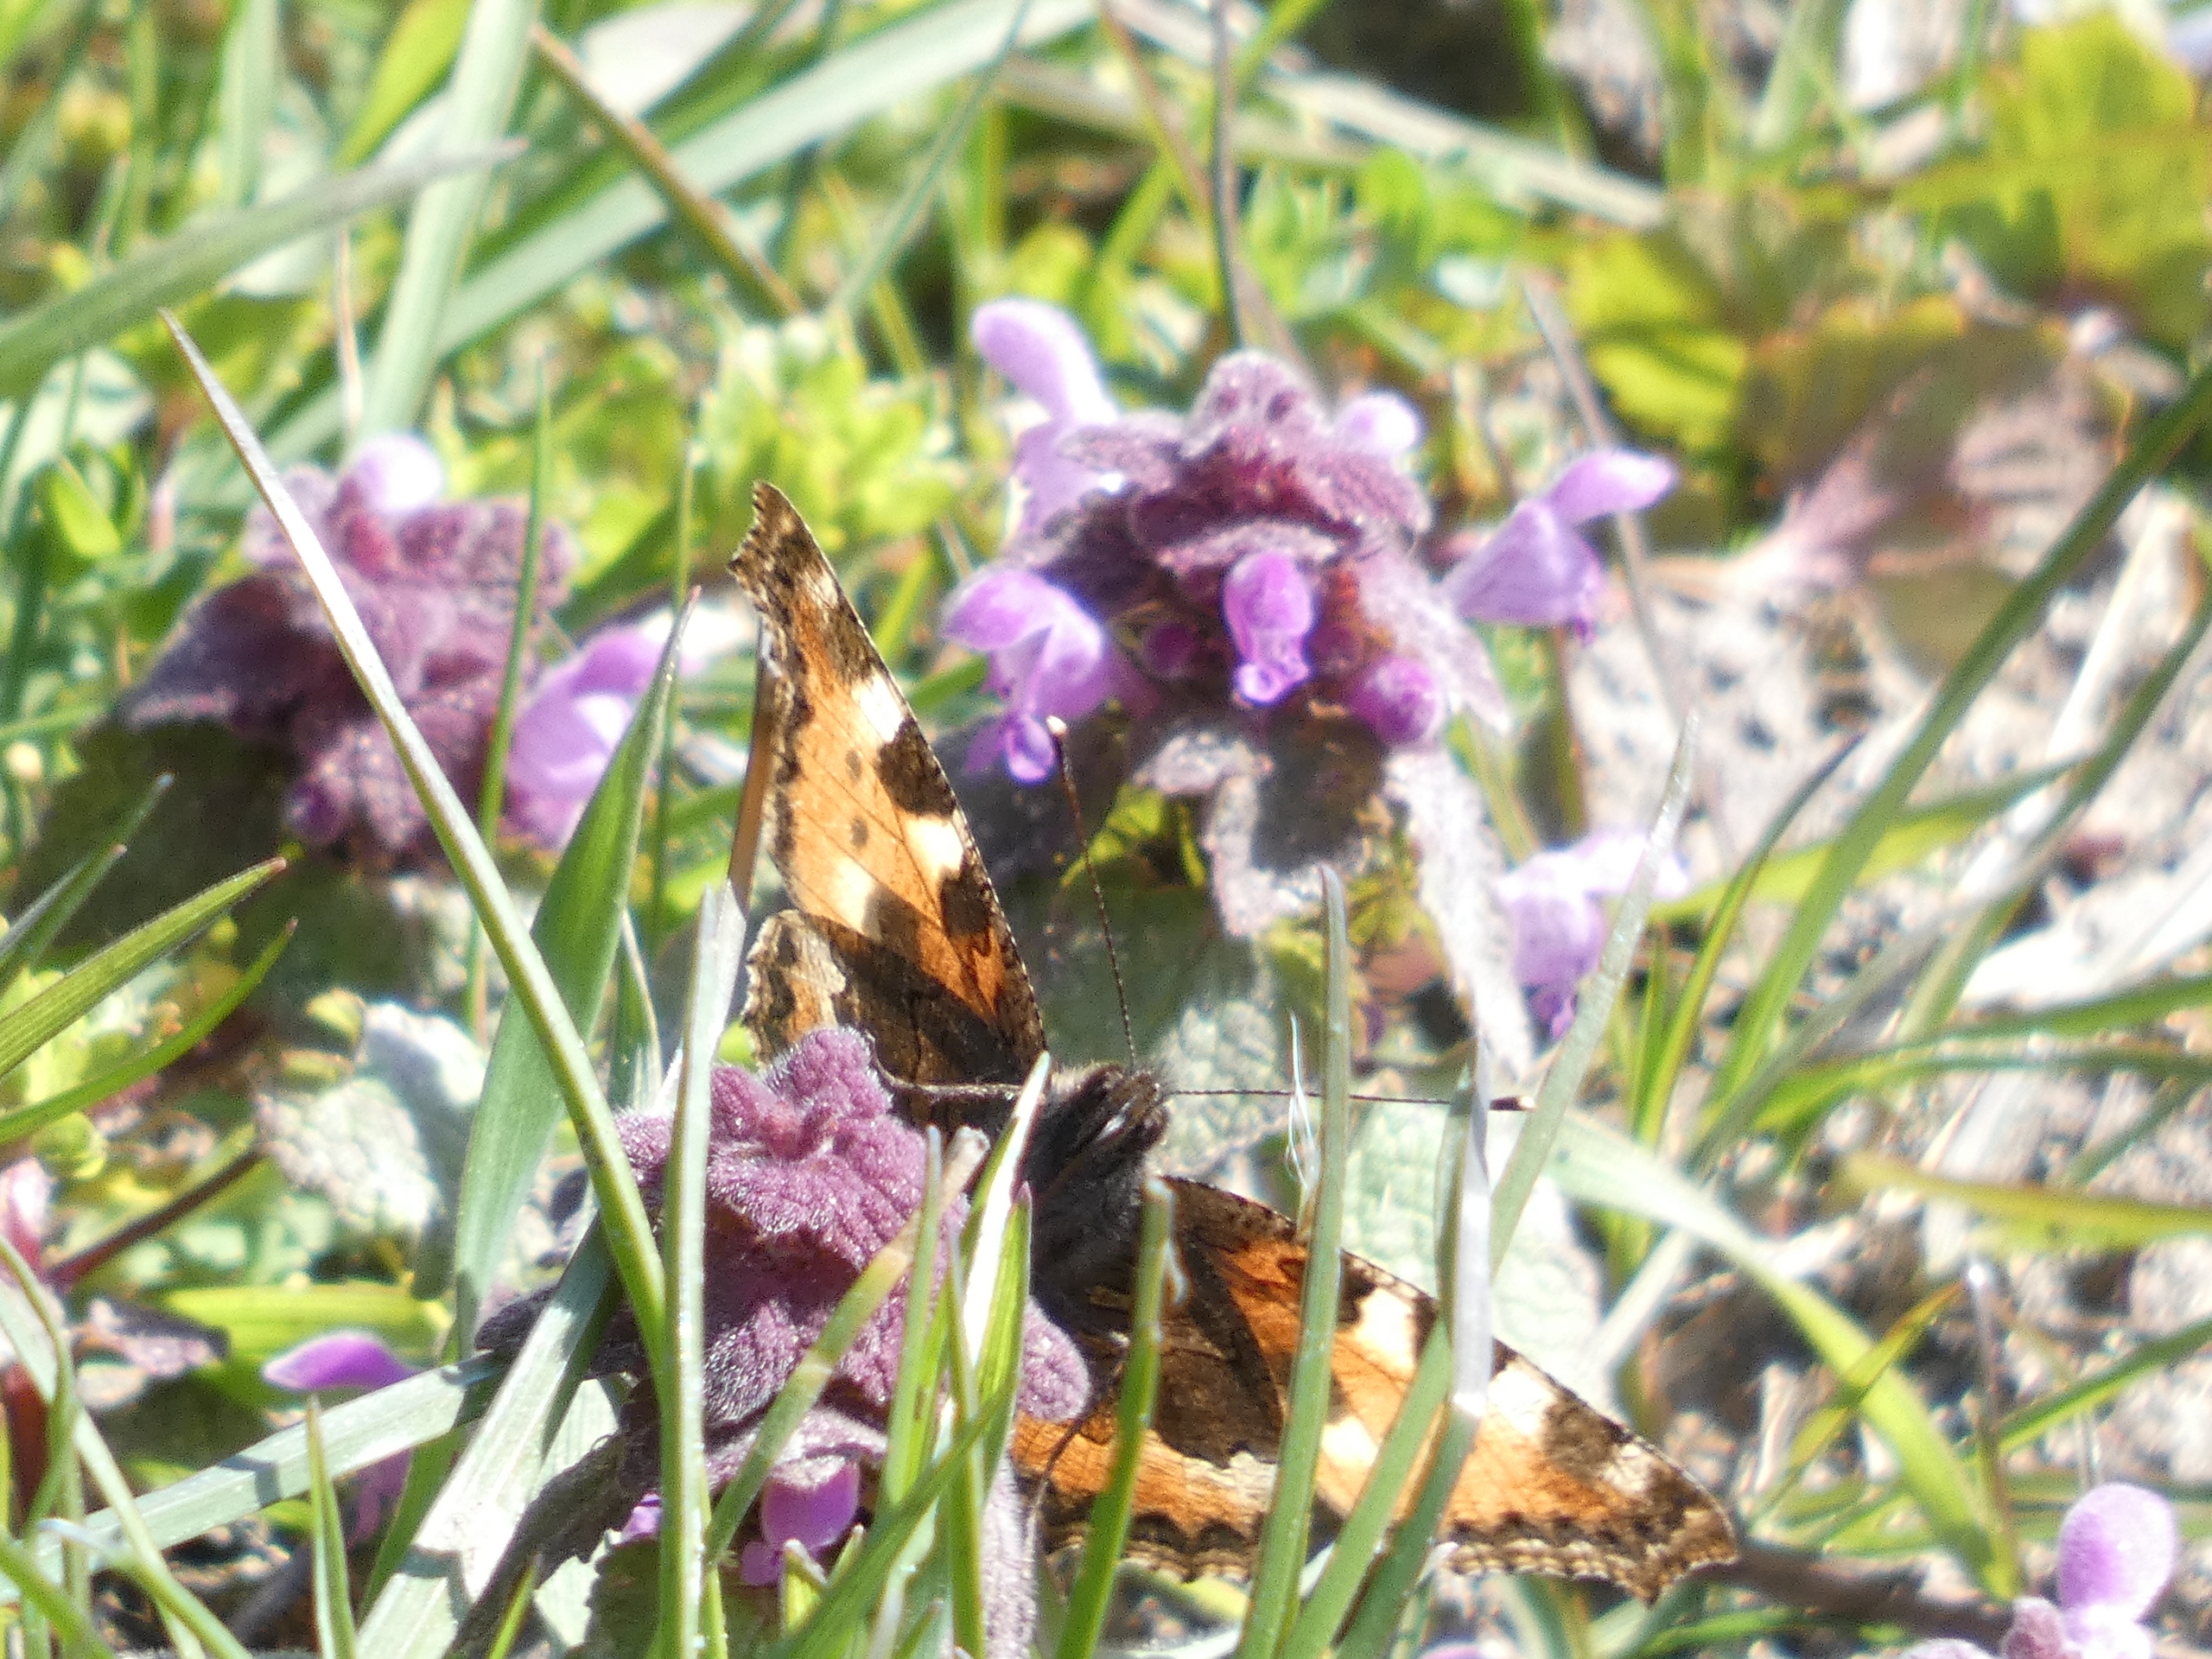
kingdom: Animalia
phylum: Arthropoda
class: Insecta
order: Lepidoptera
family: Nymphalidae
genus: Aglais
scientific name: Aglais urticae
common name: Nældens takvinge
